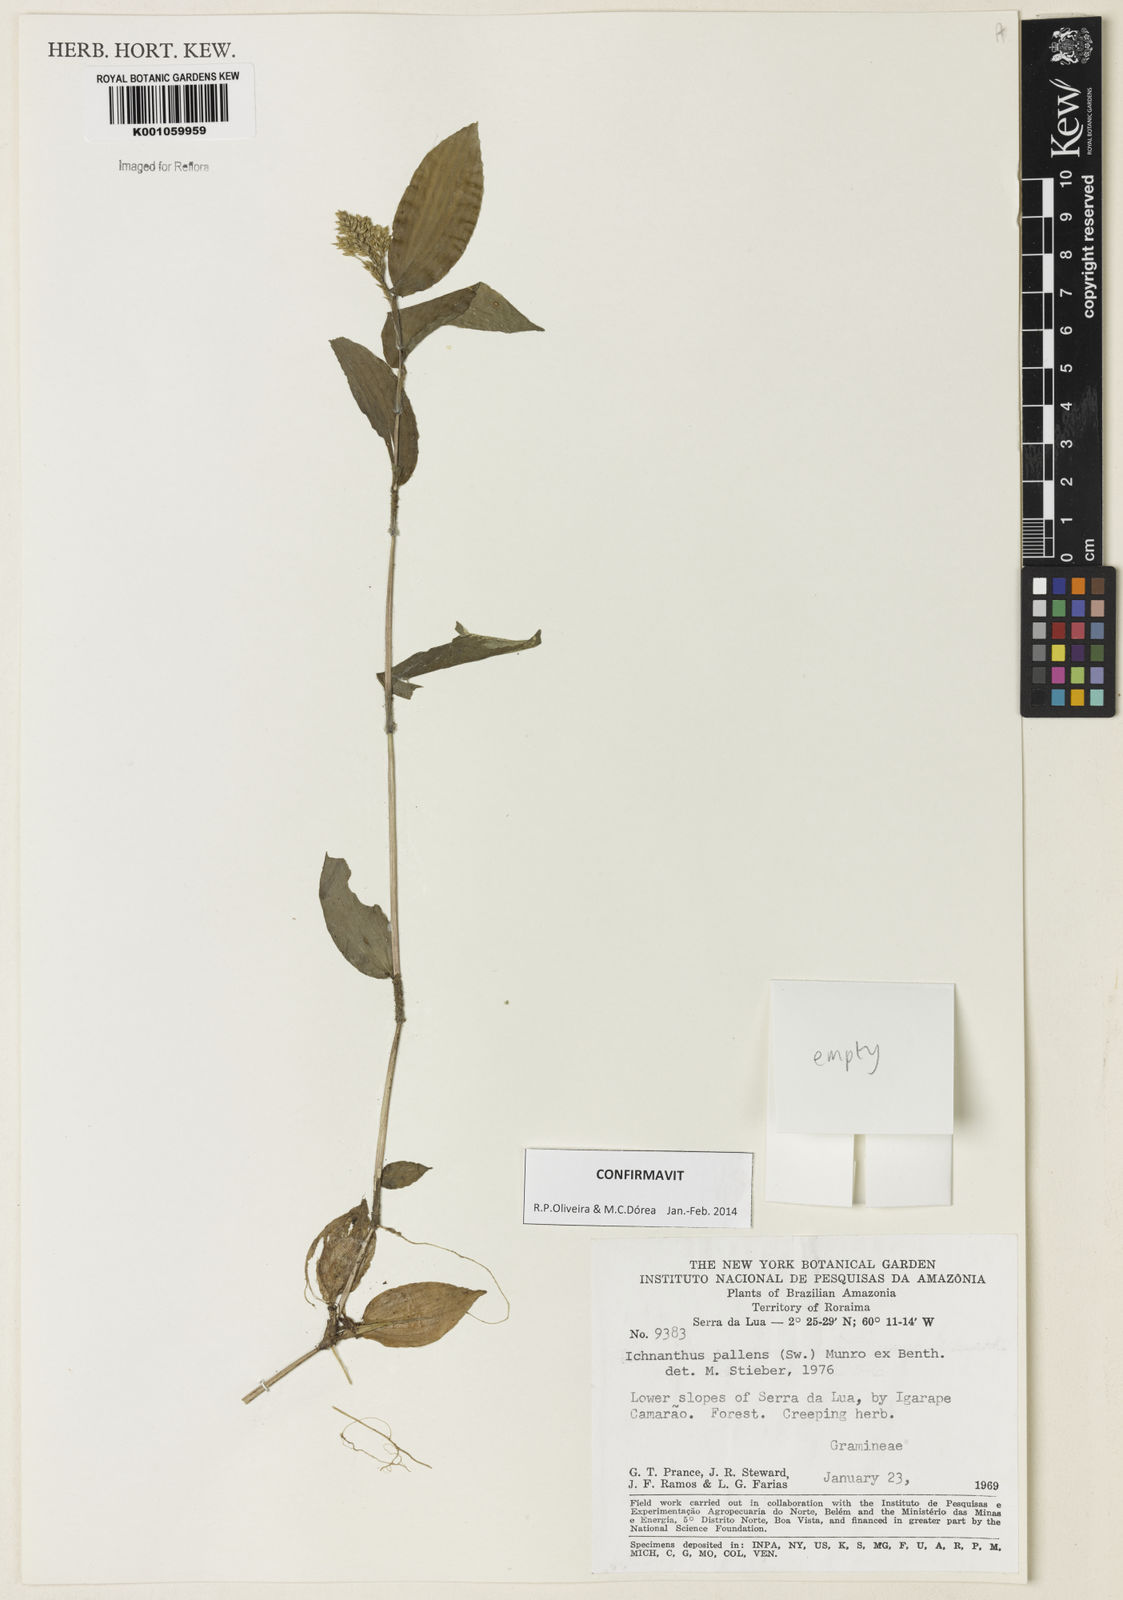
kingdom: Plantae
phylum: Tracheophyta
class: Liliopsida
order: Poales
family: Poaceae
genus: Ichnanthus
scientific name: Ichnanthus pallens
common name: Water grass
